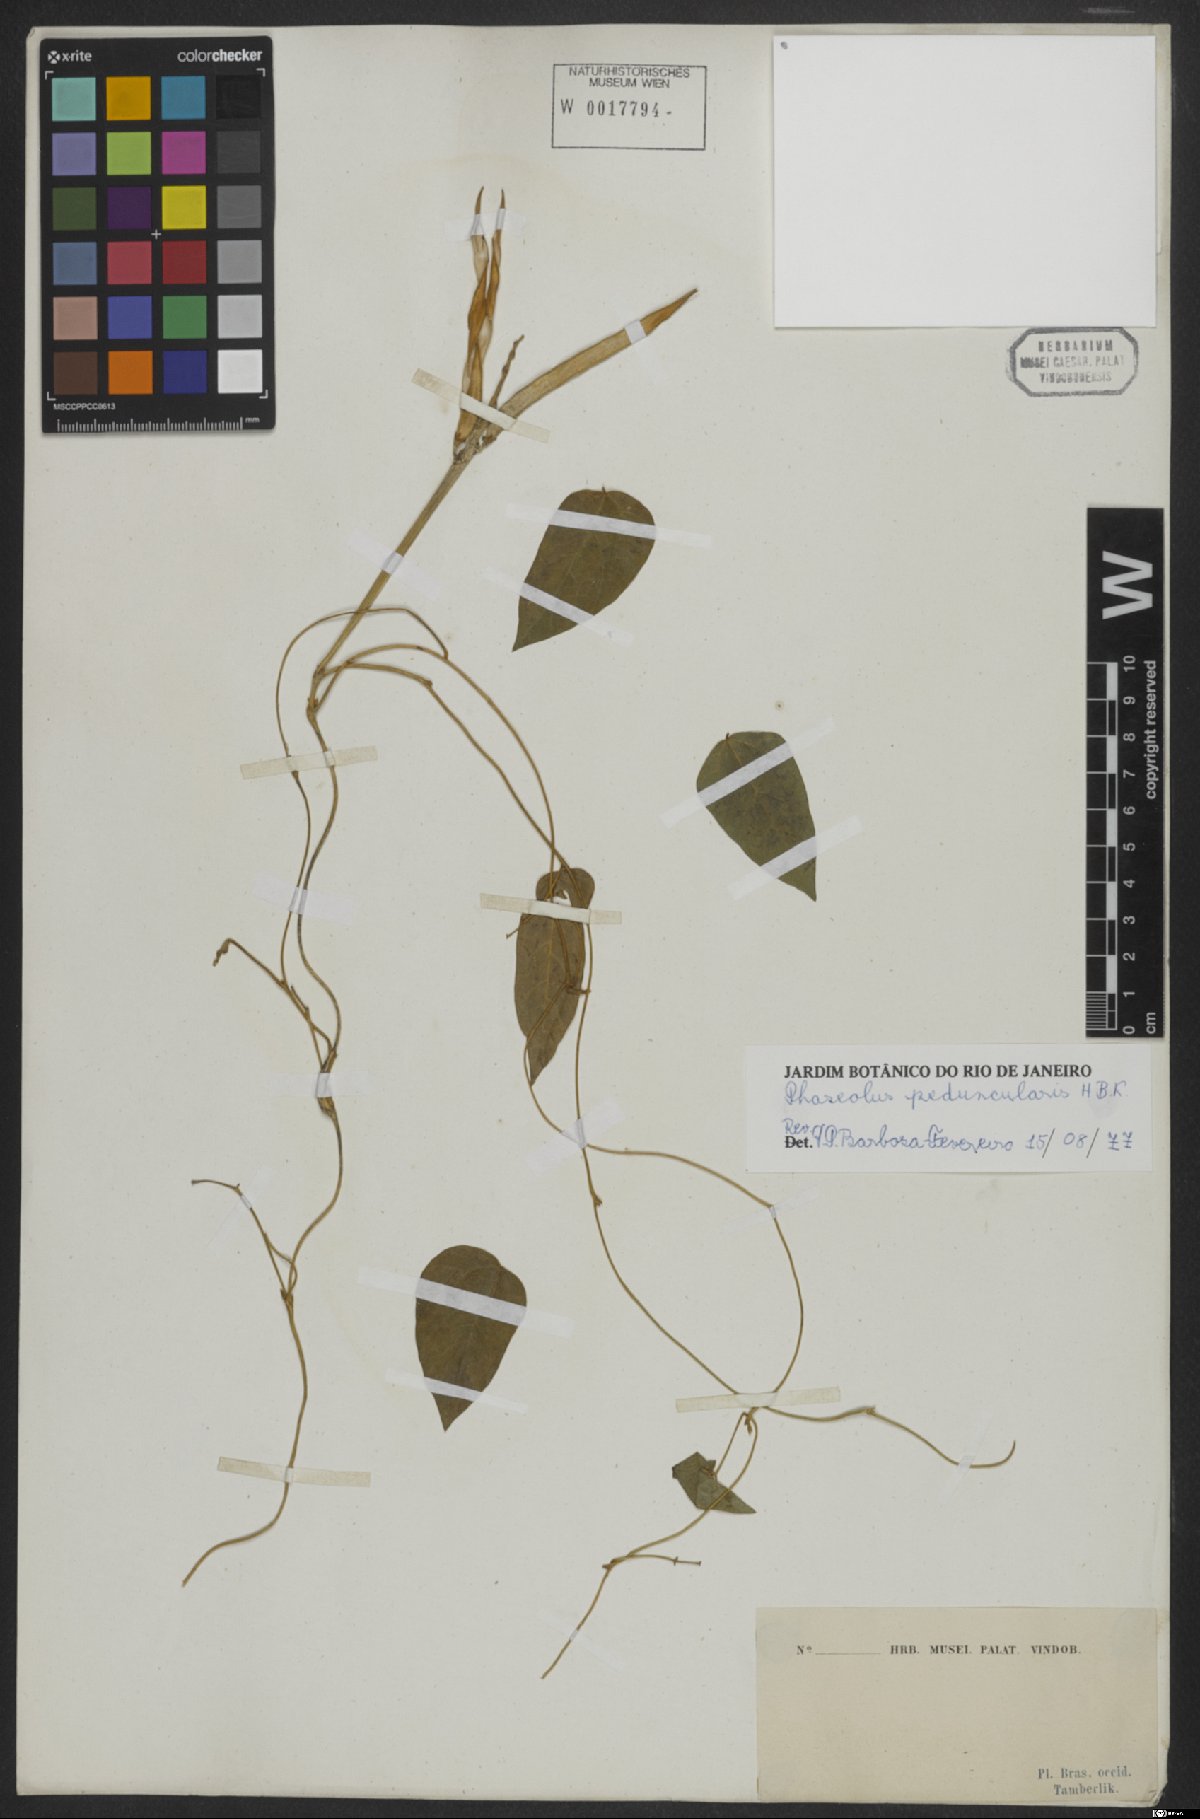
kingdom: Plantae
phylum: Tracheophyta
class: Magnoliopsida
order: Fabales
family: Fabaceae
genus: Ancistrotropis
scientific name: Ancistrotropis peduncularis
